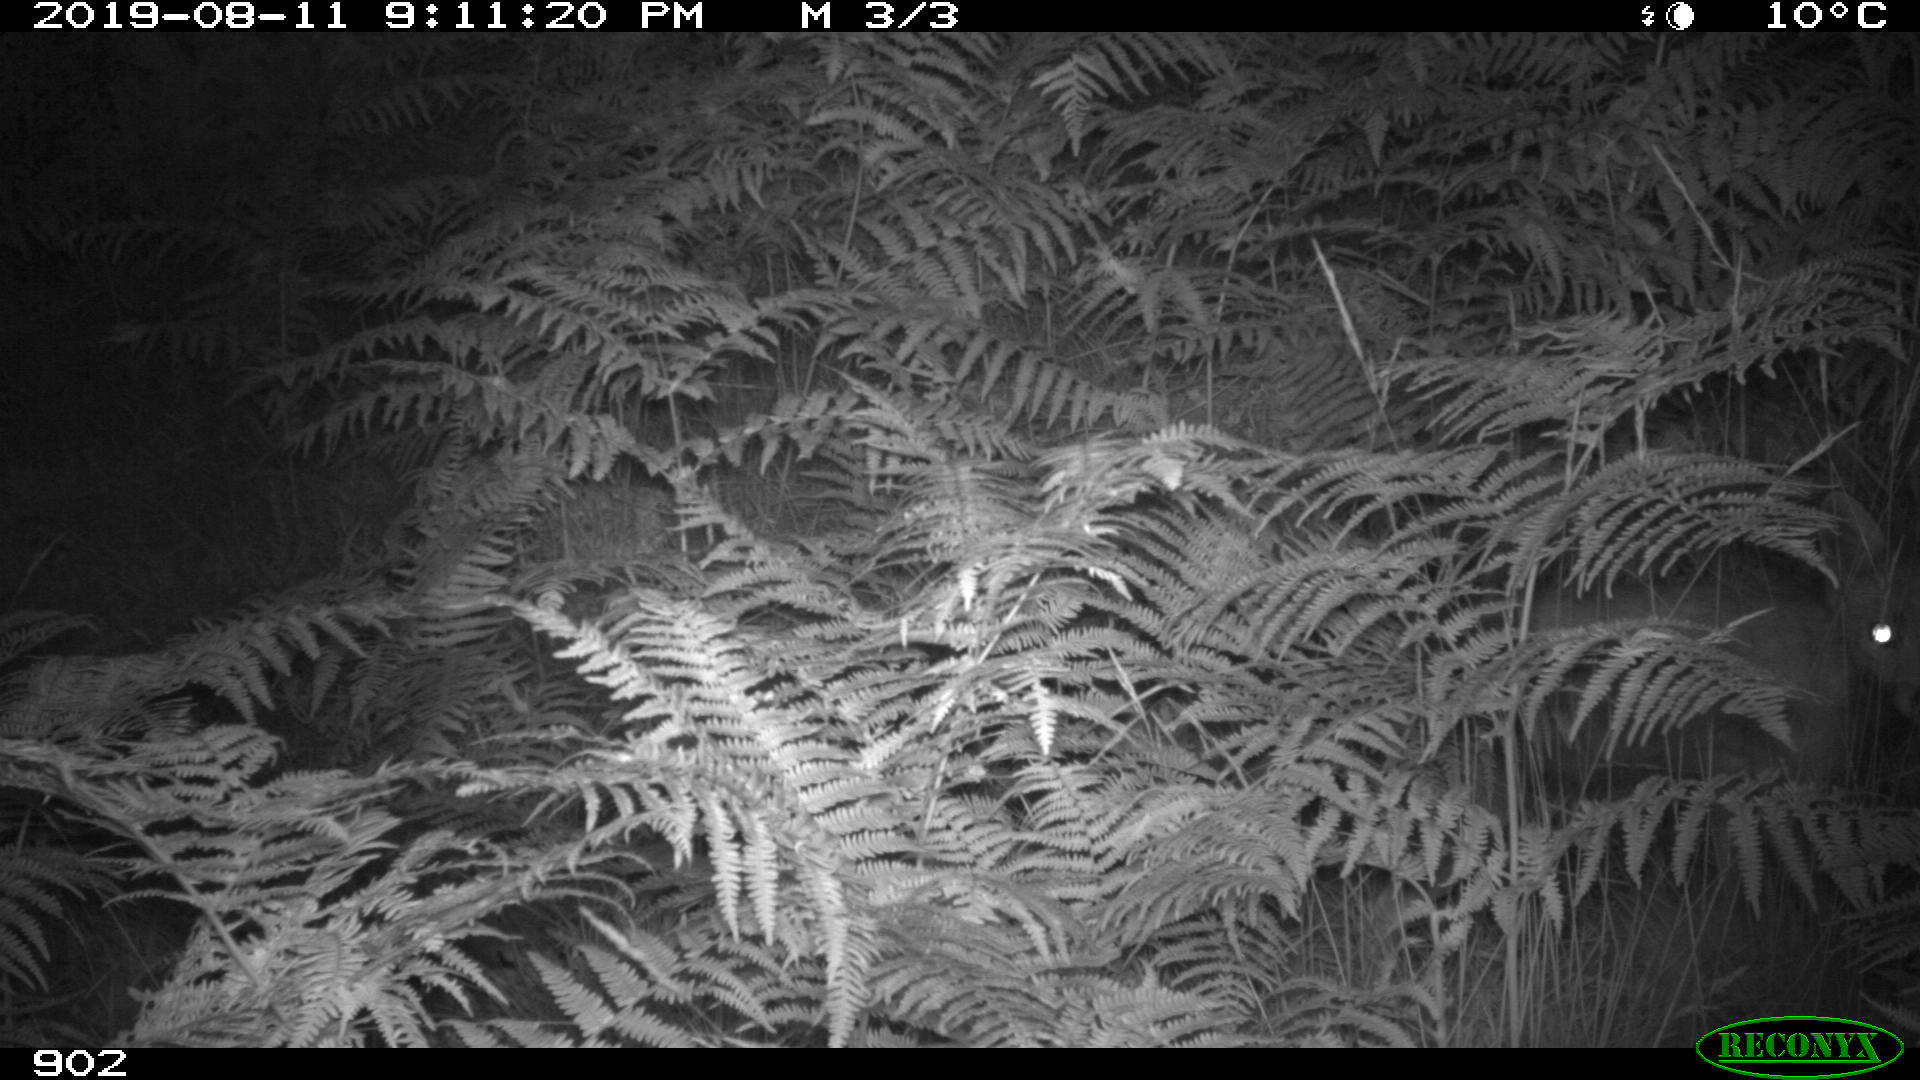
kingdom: Animalia
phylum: Chordata
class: Mammalia
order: Carnivora
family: Canidae
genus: Vulpes
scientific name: Vulpes vulpes
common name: Red fox
